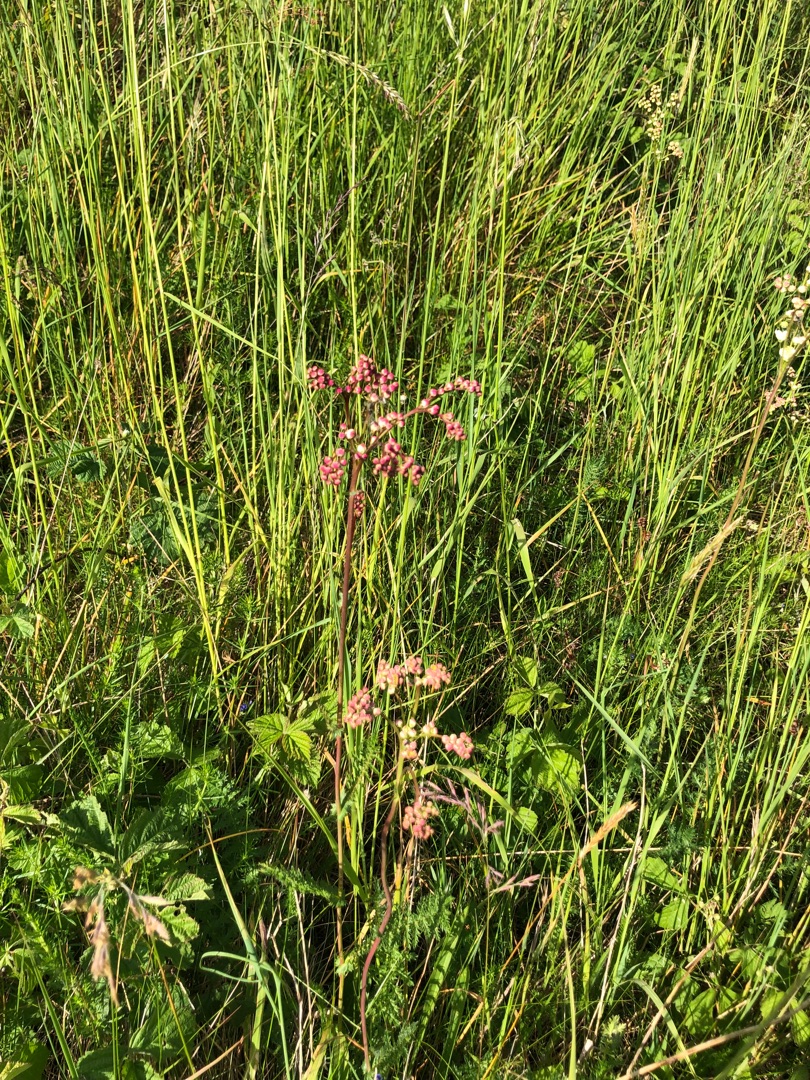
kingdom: Plantae
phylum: Tracheophyta
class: Magnoliopsida
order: Rosales
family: Rosaceae
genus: Filipendula
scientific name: Filipendula vulgaris
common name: Knoldet mjødurt
